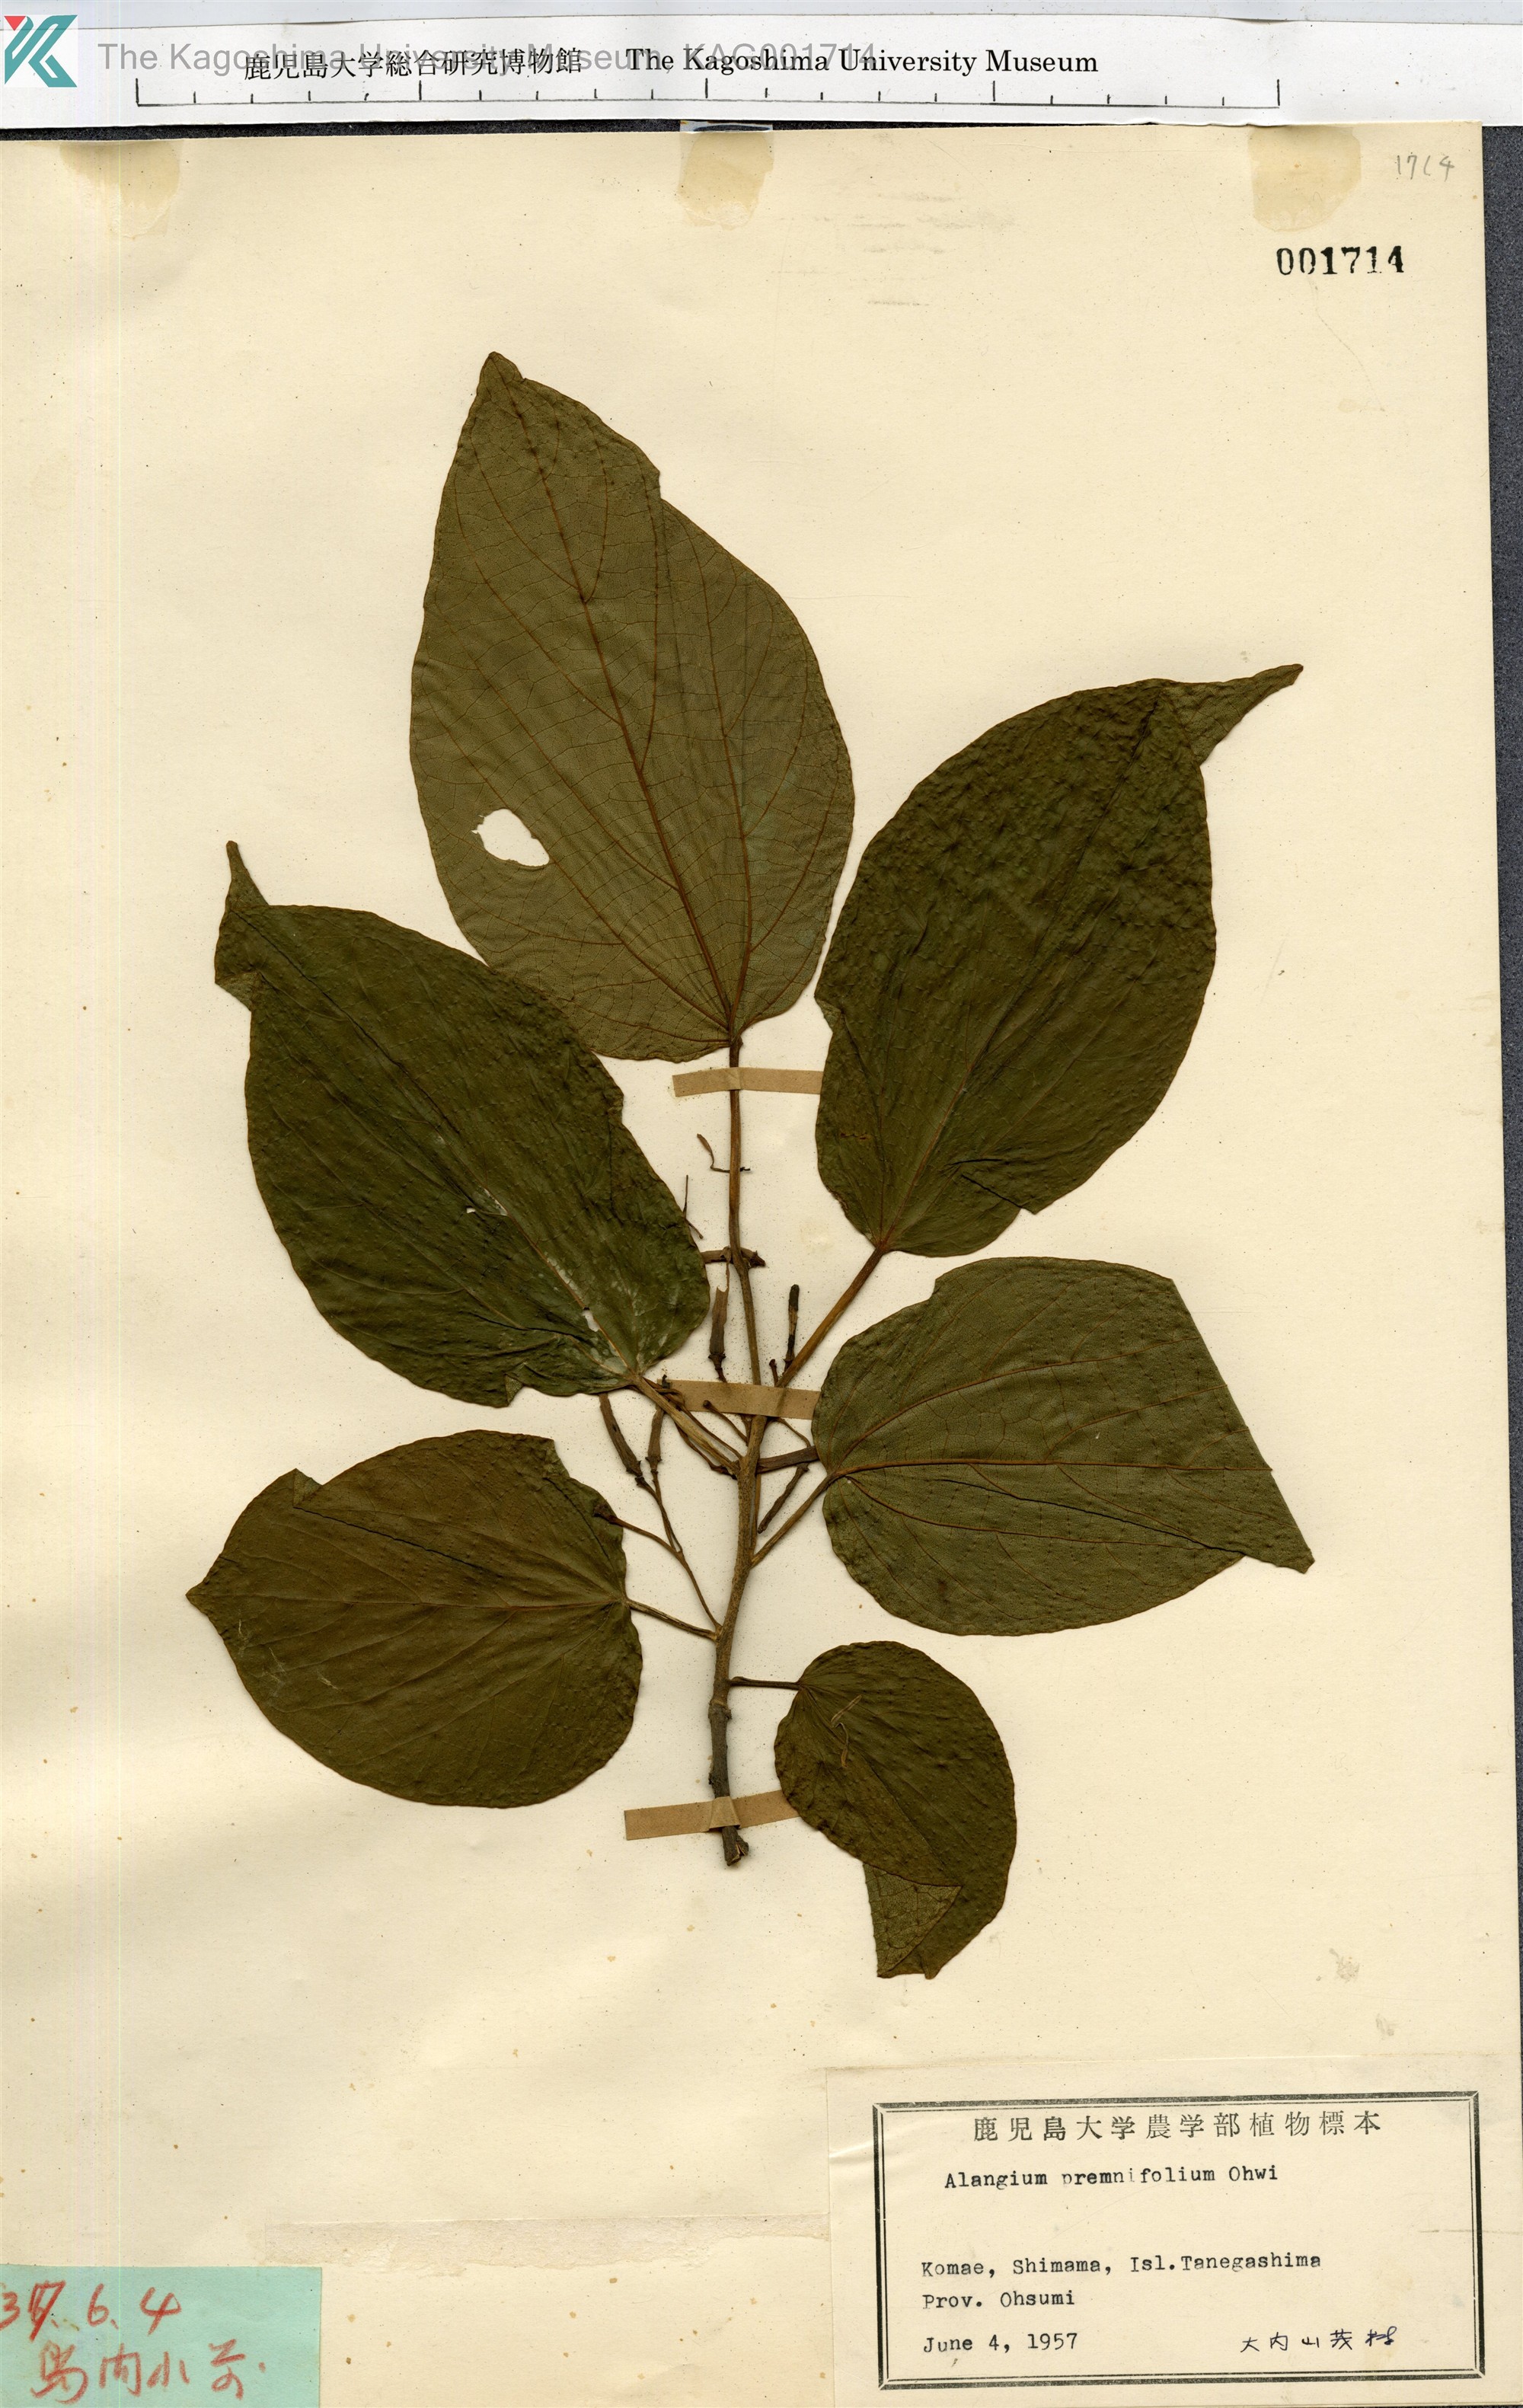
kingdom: Plantae
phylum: Tracheophyta
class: Magnoliopsida
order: Cornales
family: Cornaceae
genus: Alangium
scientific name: Alangium premnifolium
